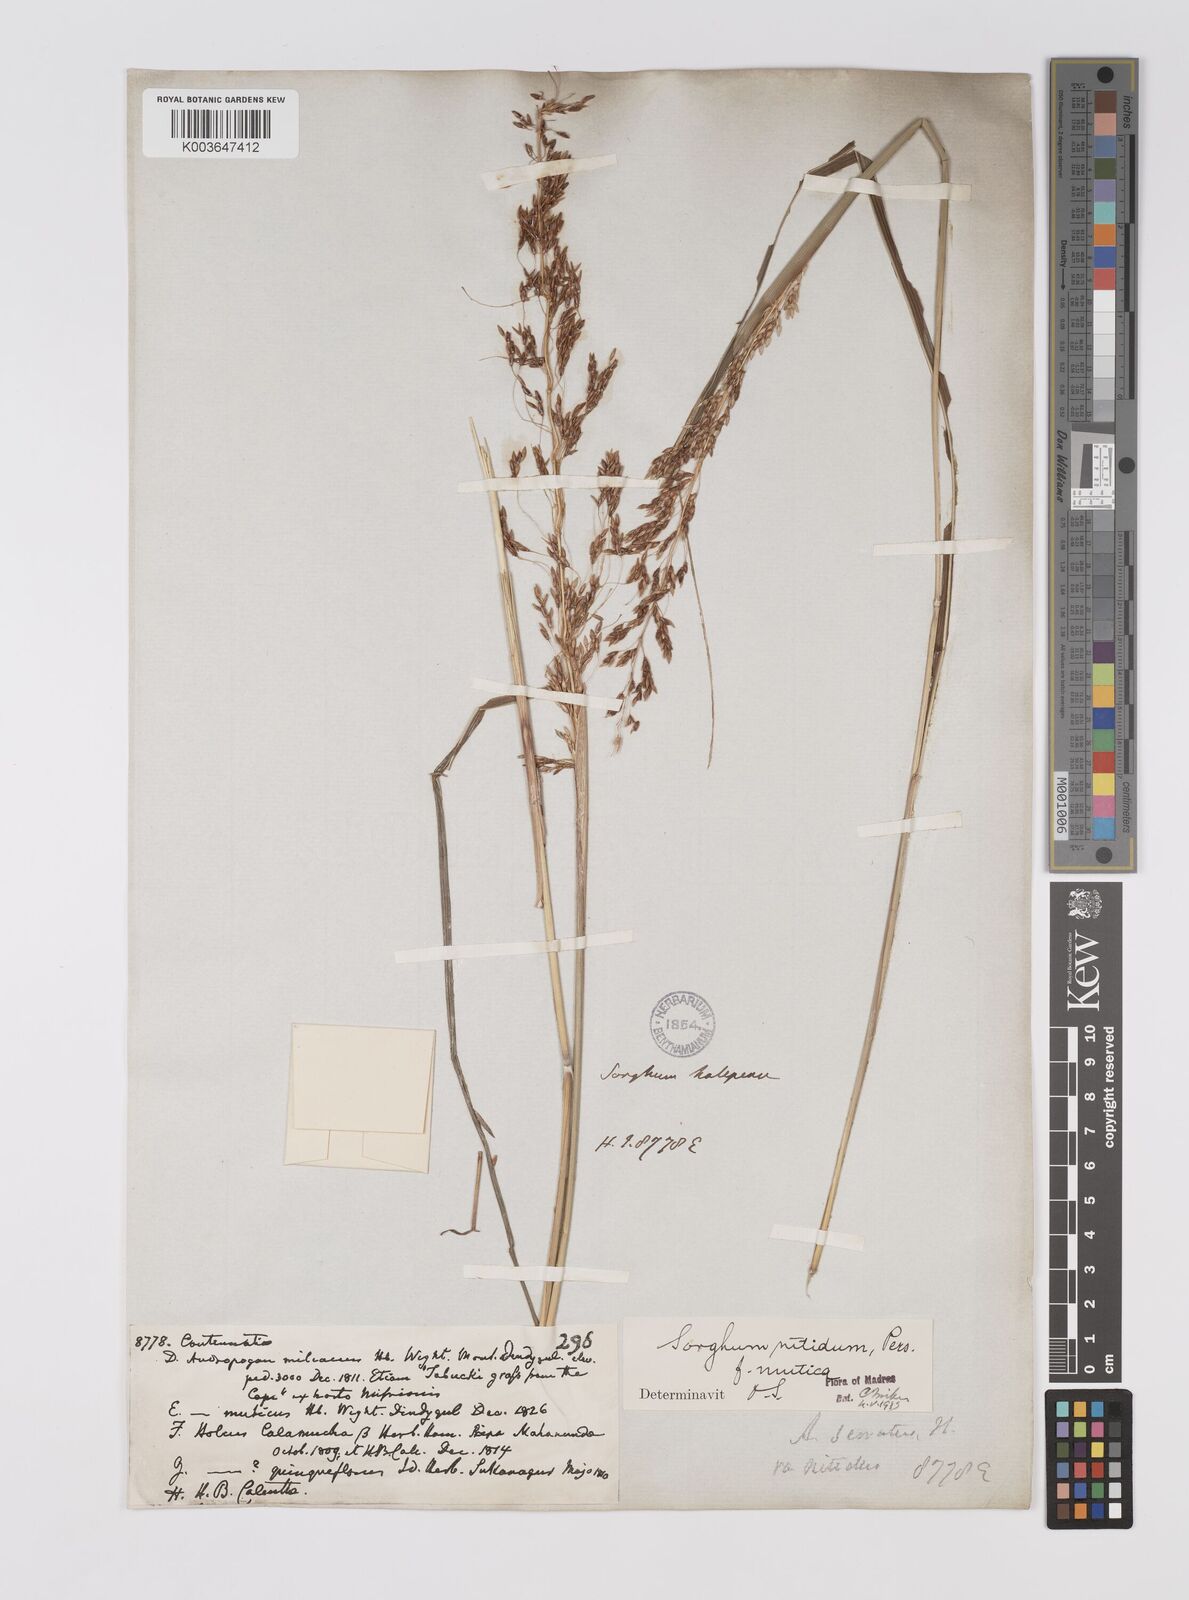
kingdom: Plantae
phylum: Tracheophyta
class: Liliopsida
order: Poales
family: Poaceae
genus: Sorghum
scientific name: Sorghum nitidum
